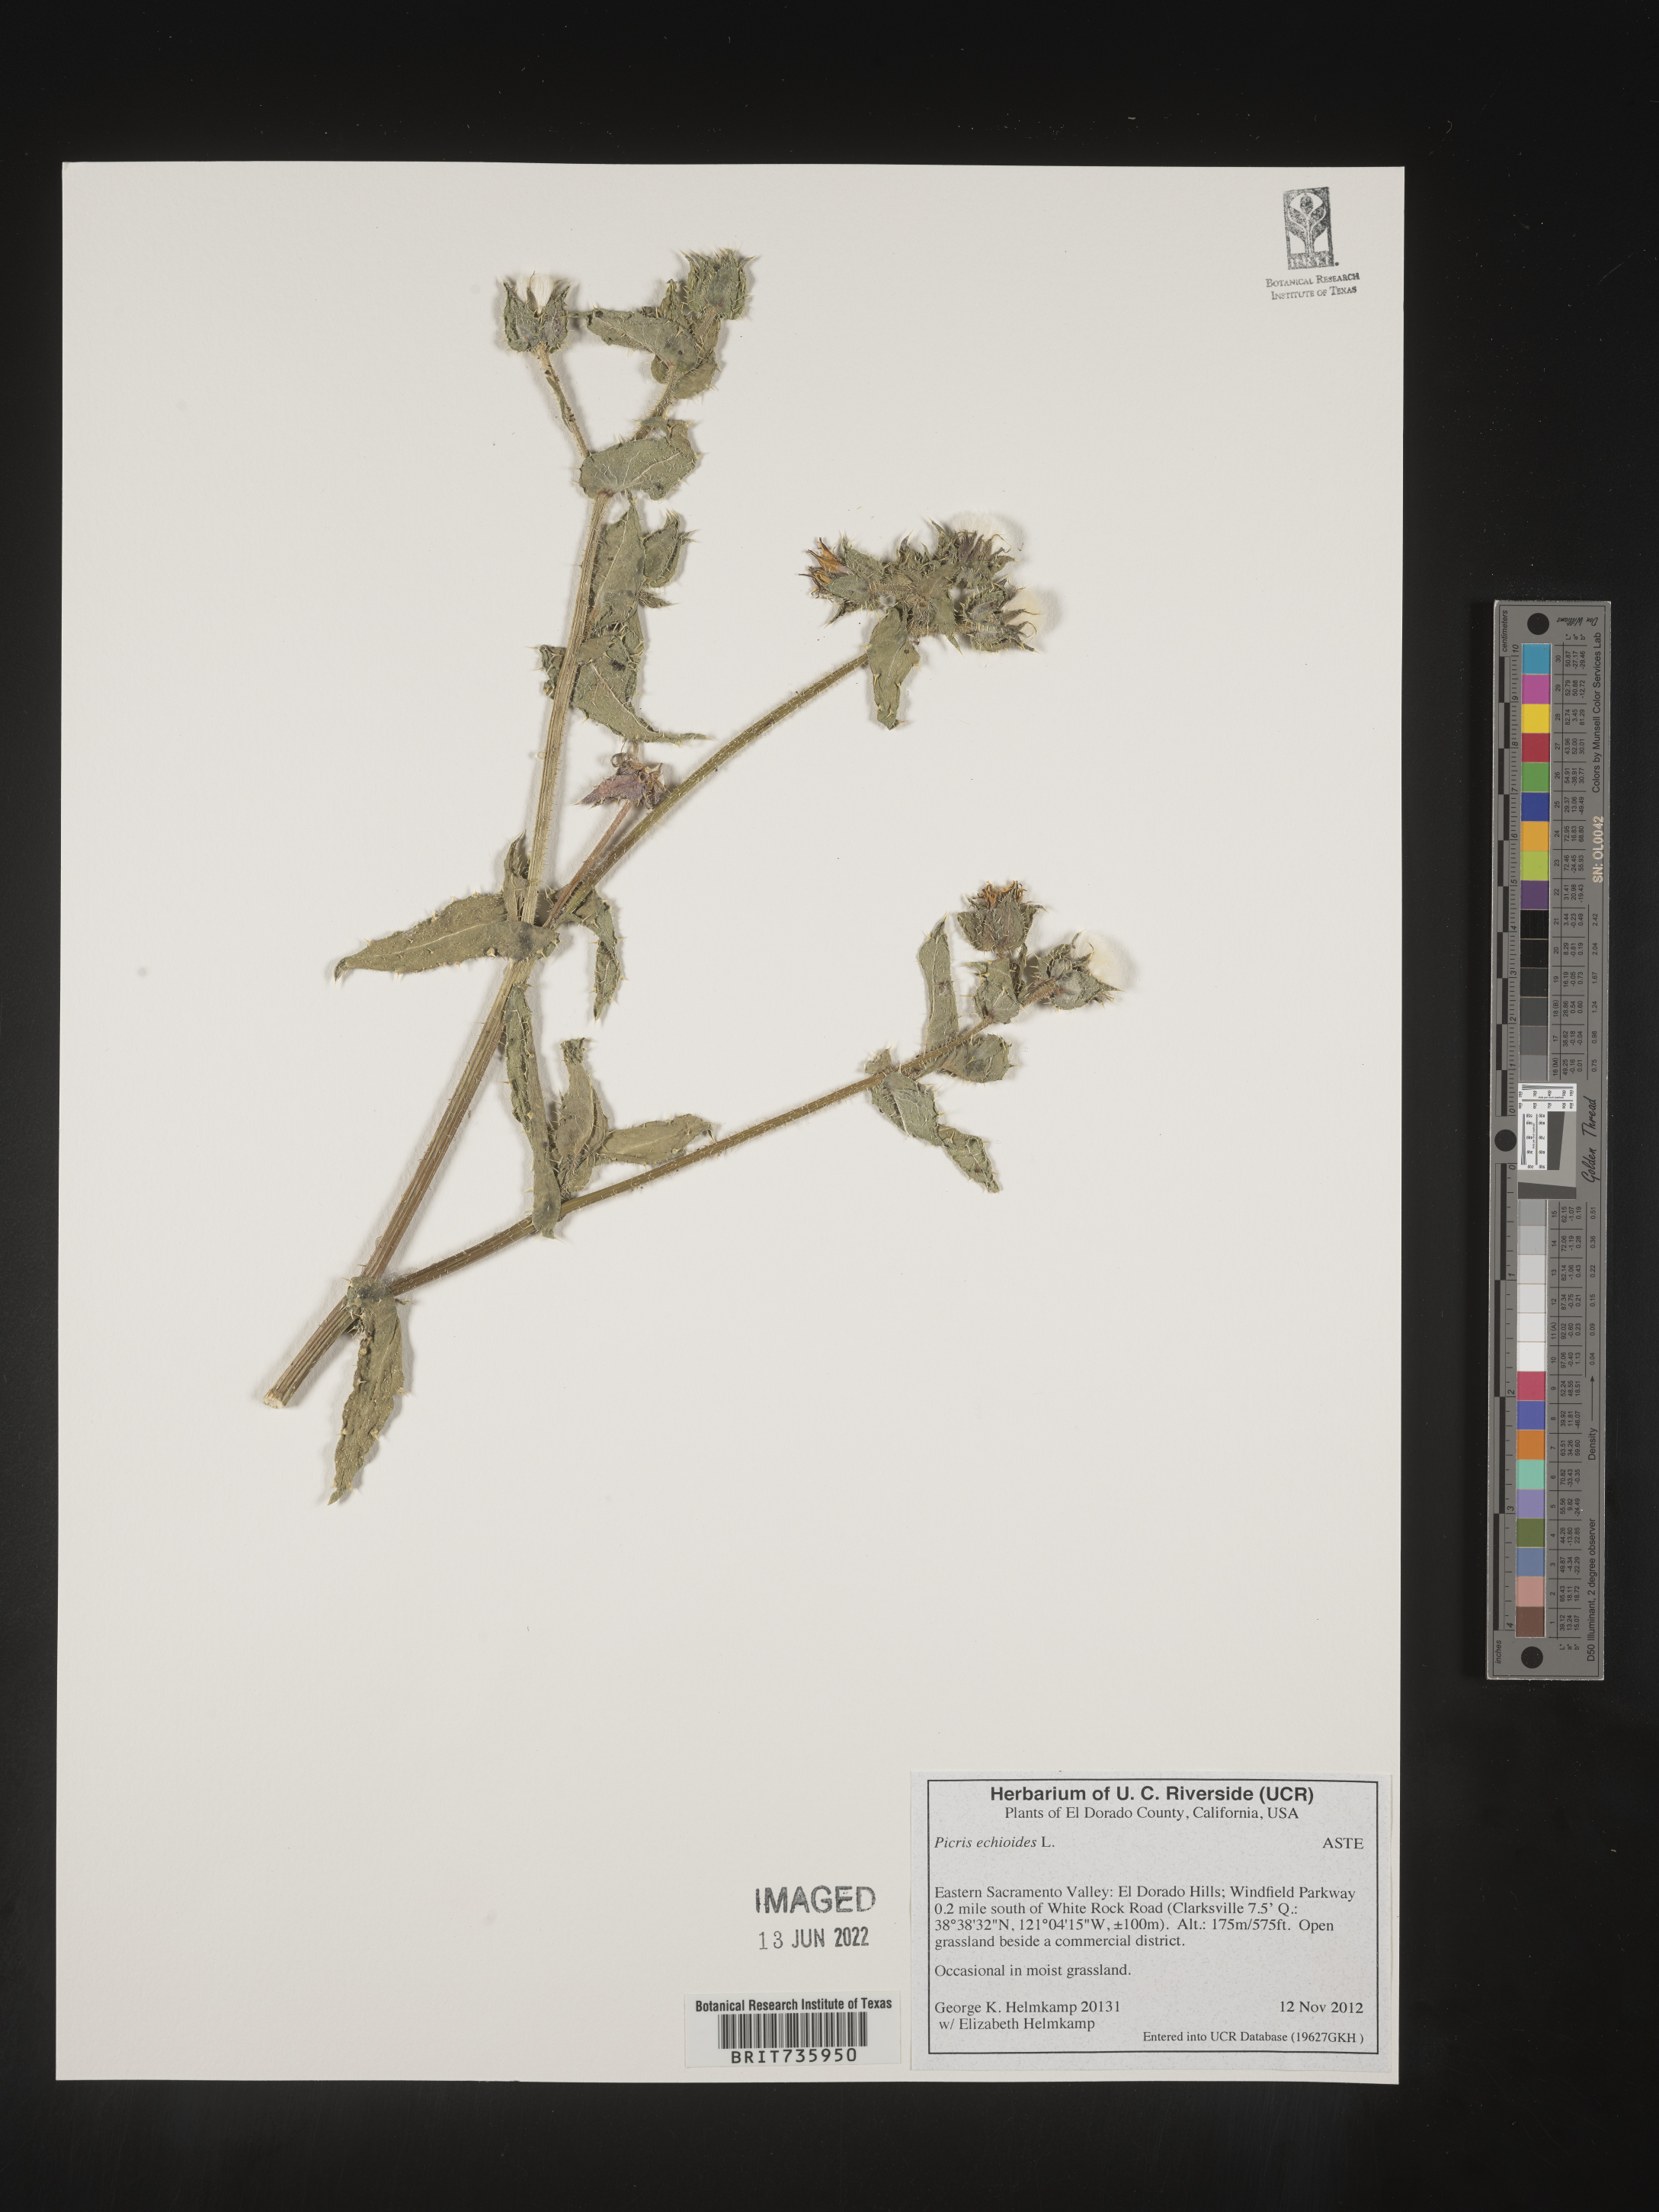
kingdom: Plantae
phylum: Tracheophyta
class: Magnoliopsida
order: Asterales
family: Asteraceae
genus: Picris
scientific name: Picris
